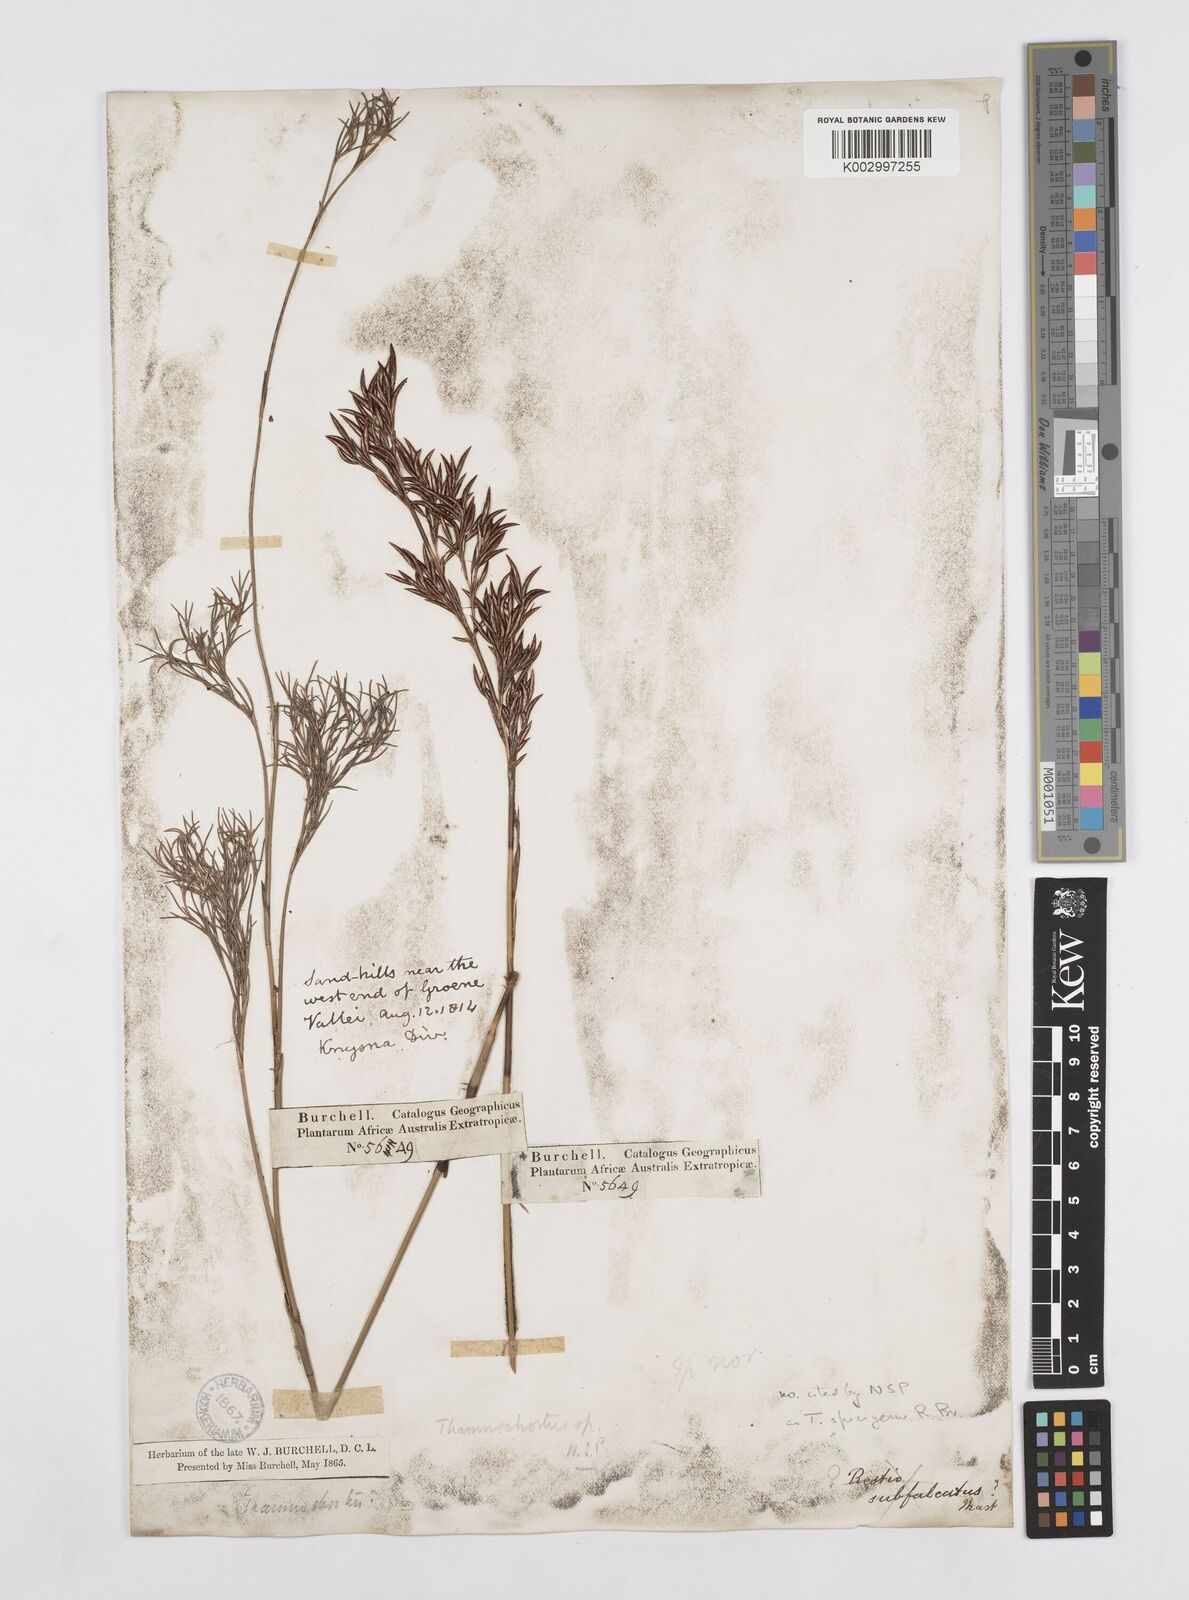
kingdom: Plantae
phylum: Tracheophyta
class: Liliopsida
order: Poales
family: Restionaceae
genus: Thamnochortus
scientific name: Thamnochortus spicigerus
